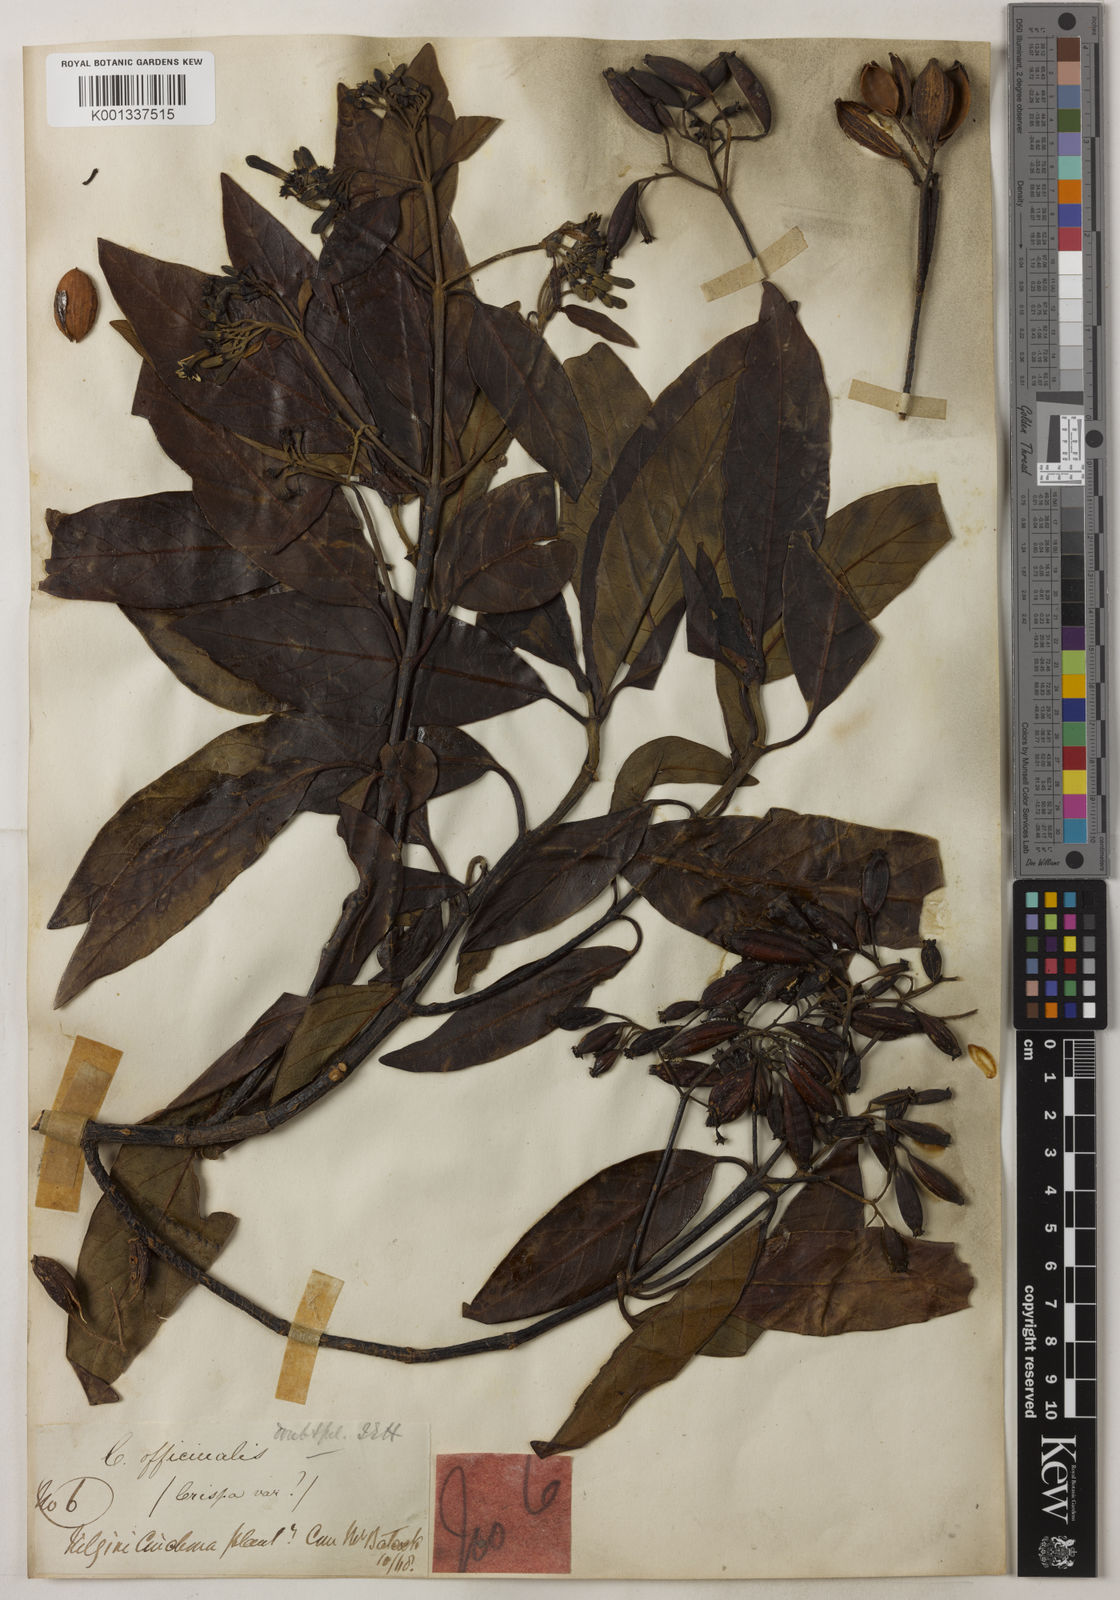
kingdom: Plantae
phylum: Tracheophyta
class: Magnoliopsida
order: Gentianales
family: Rubiaceae
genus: Cinchona
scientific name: Cinchona officinalis
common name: Lojabark
